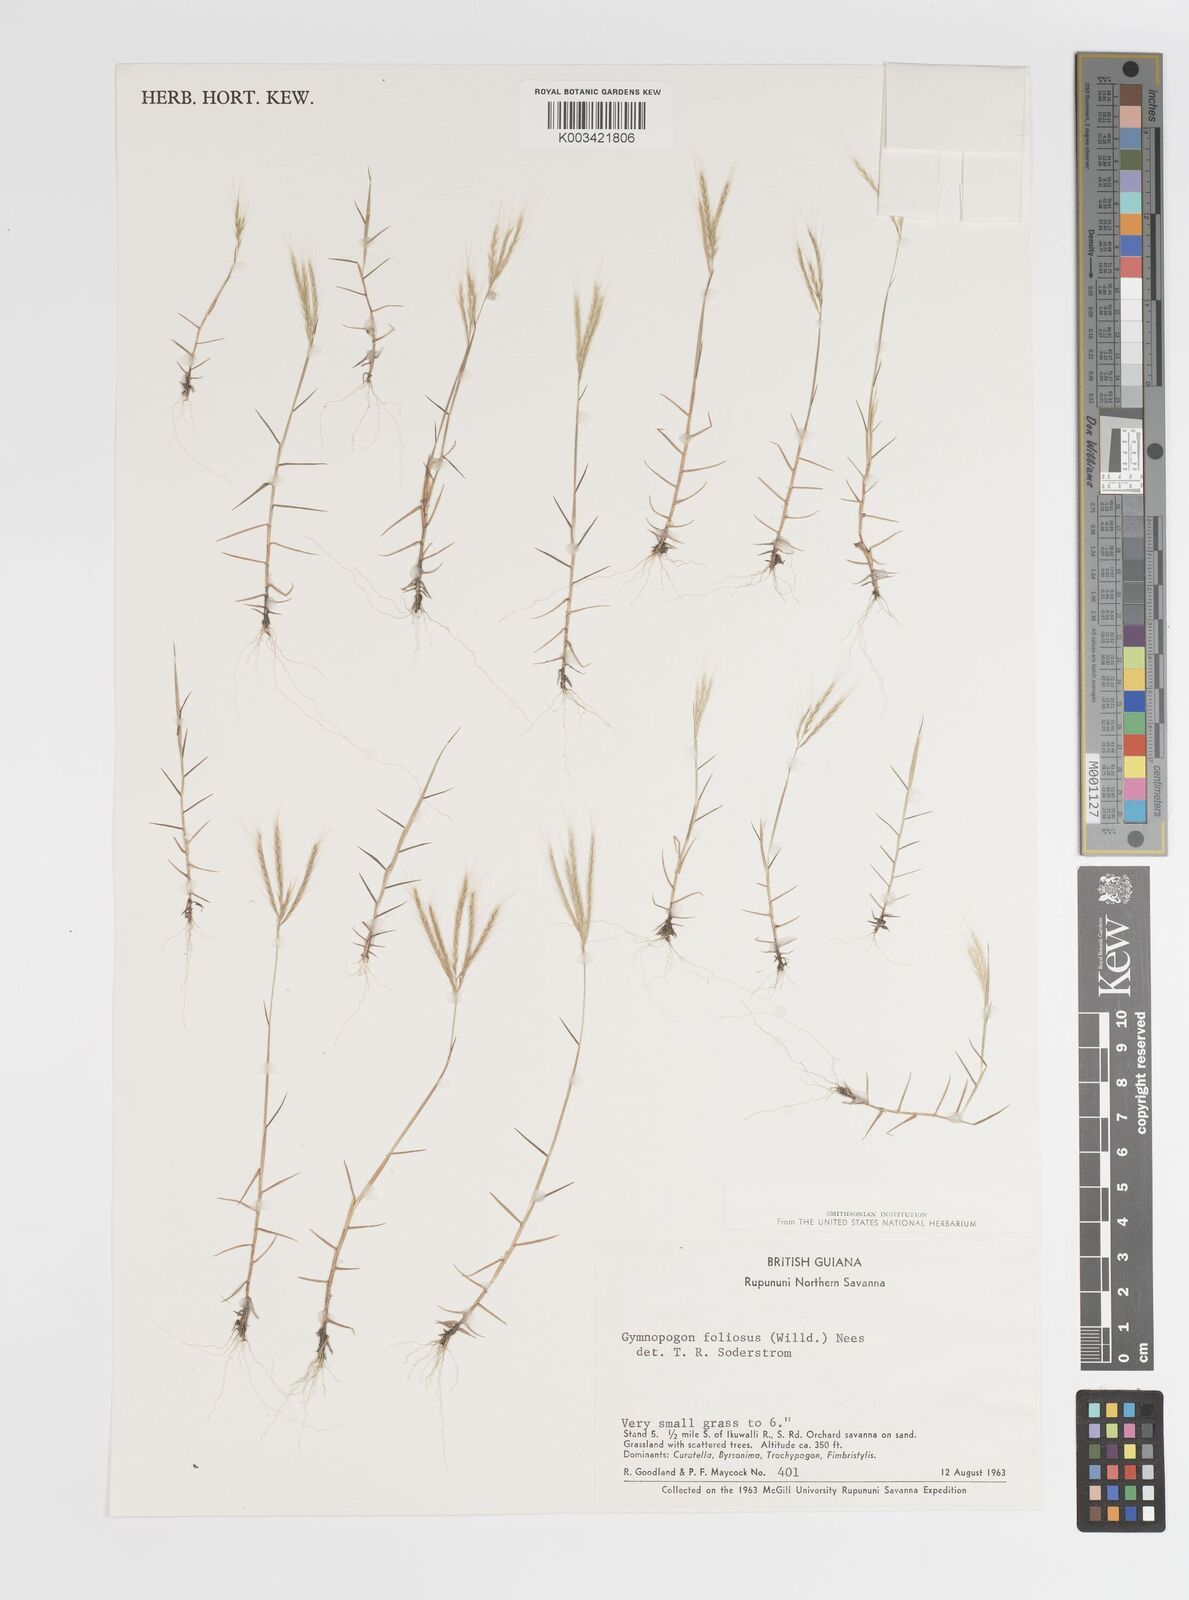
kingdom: Plantae
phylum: Tracheophyta
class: Liliopsida
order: Poales
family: Poaceae
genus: Gymnopogon
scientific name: Gymnopogon foliosus
